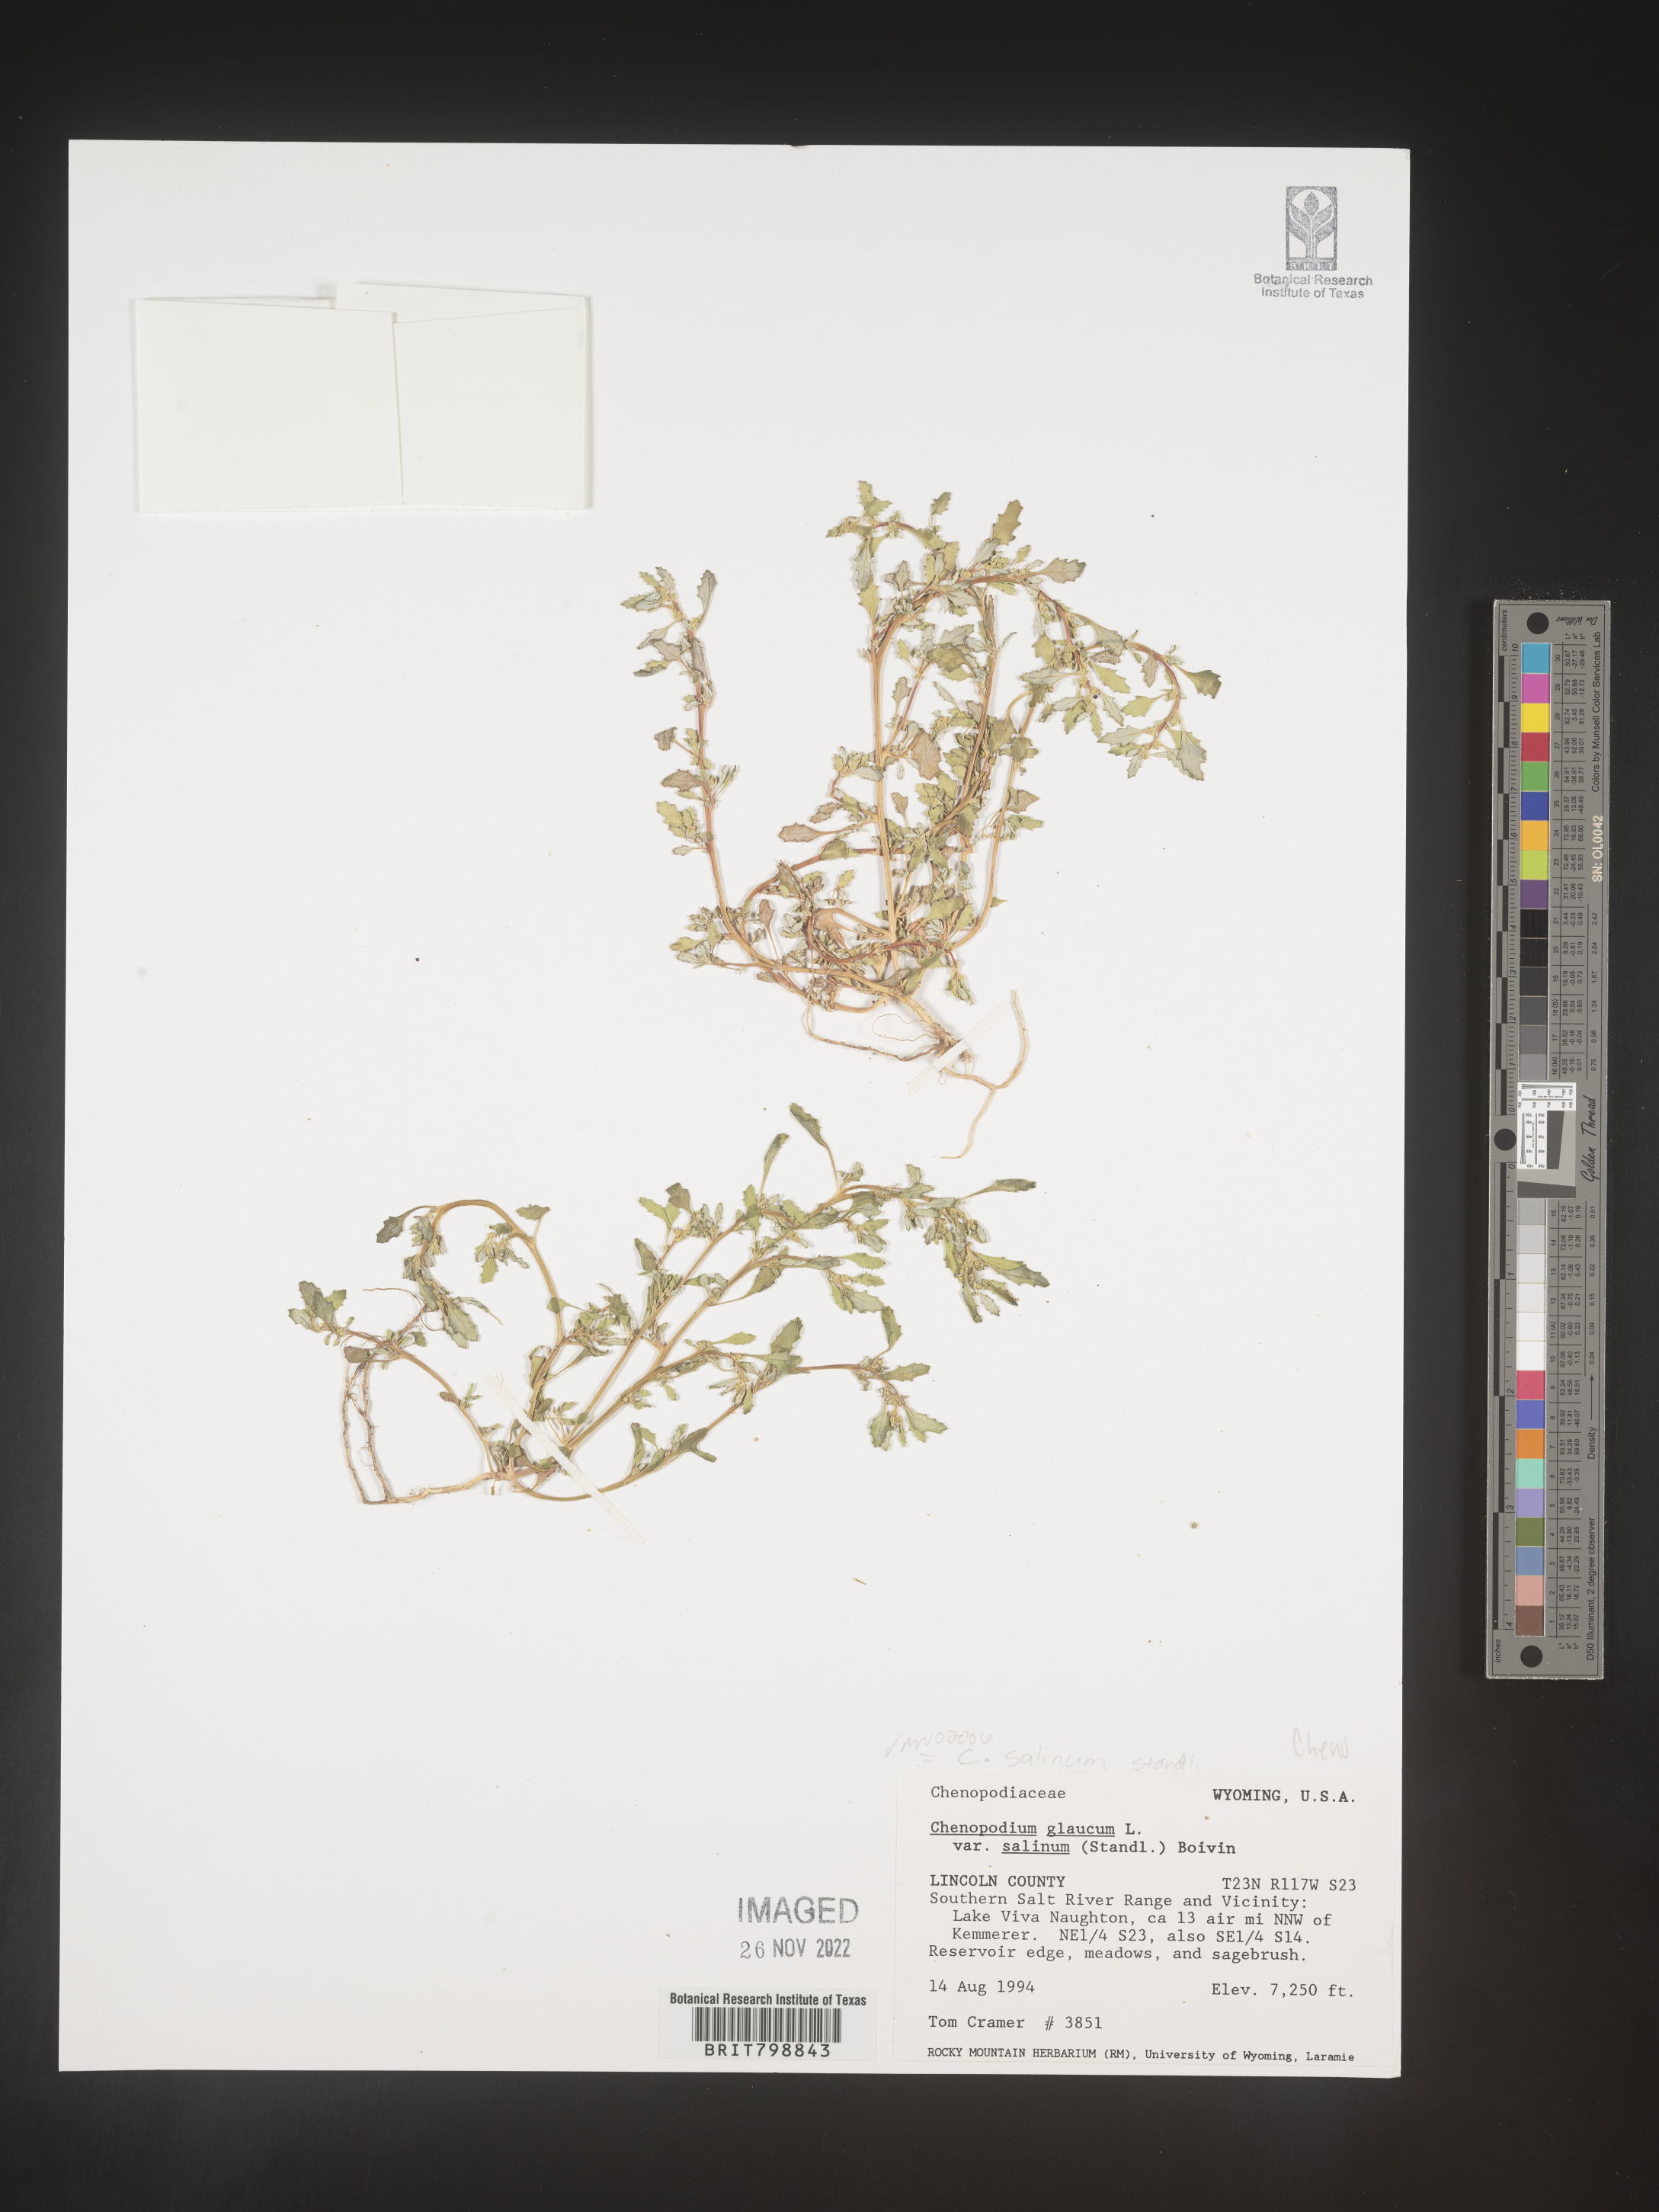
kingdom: Plantae
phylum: Tracheophyta
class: Magnoliopsida
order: Caryophyllales
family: Amaranthaceae
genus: Oxybasis
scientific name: Oxybasis glauca
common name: Glaucous goosefoot
